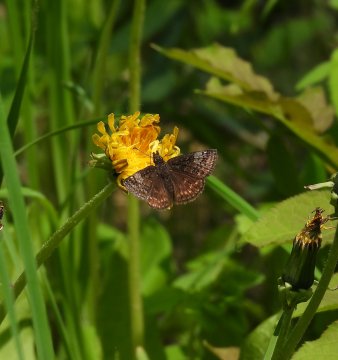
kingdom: Animalia
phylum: Arthropoda
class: Insecta
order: Lepidoptera
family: Hesperiidae
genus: Erynnis
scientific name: Erynnis icelus
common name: Dreamy Duskywing
